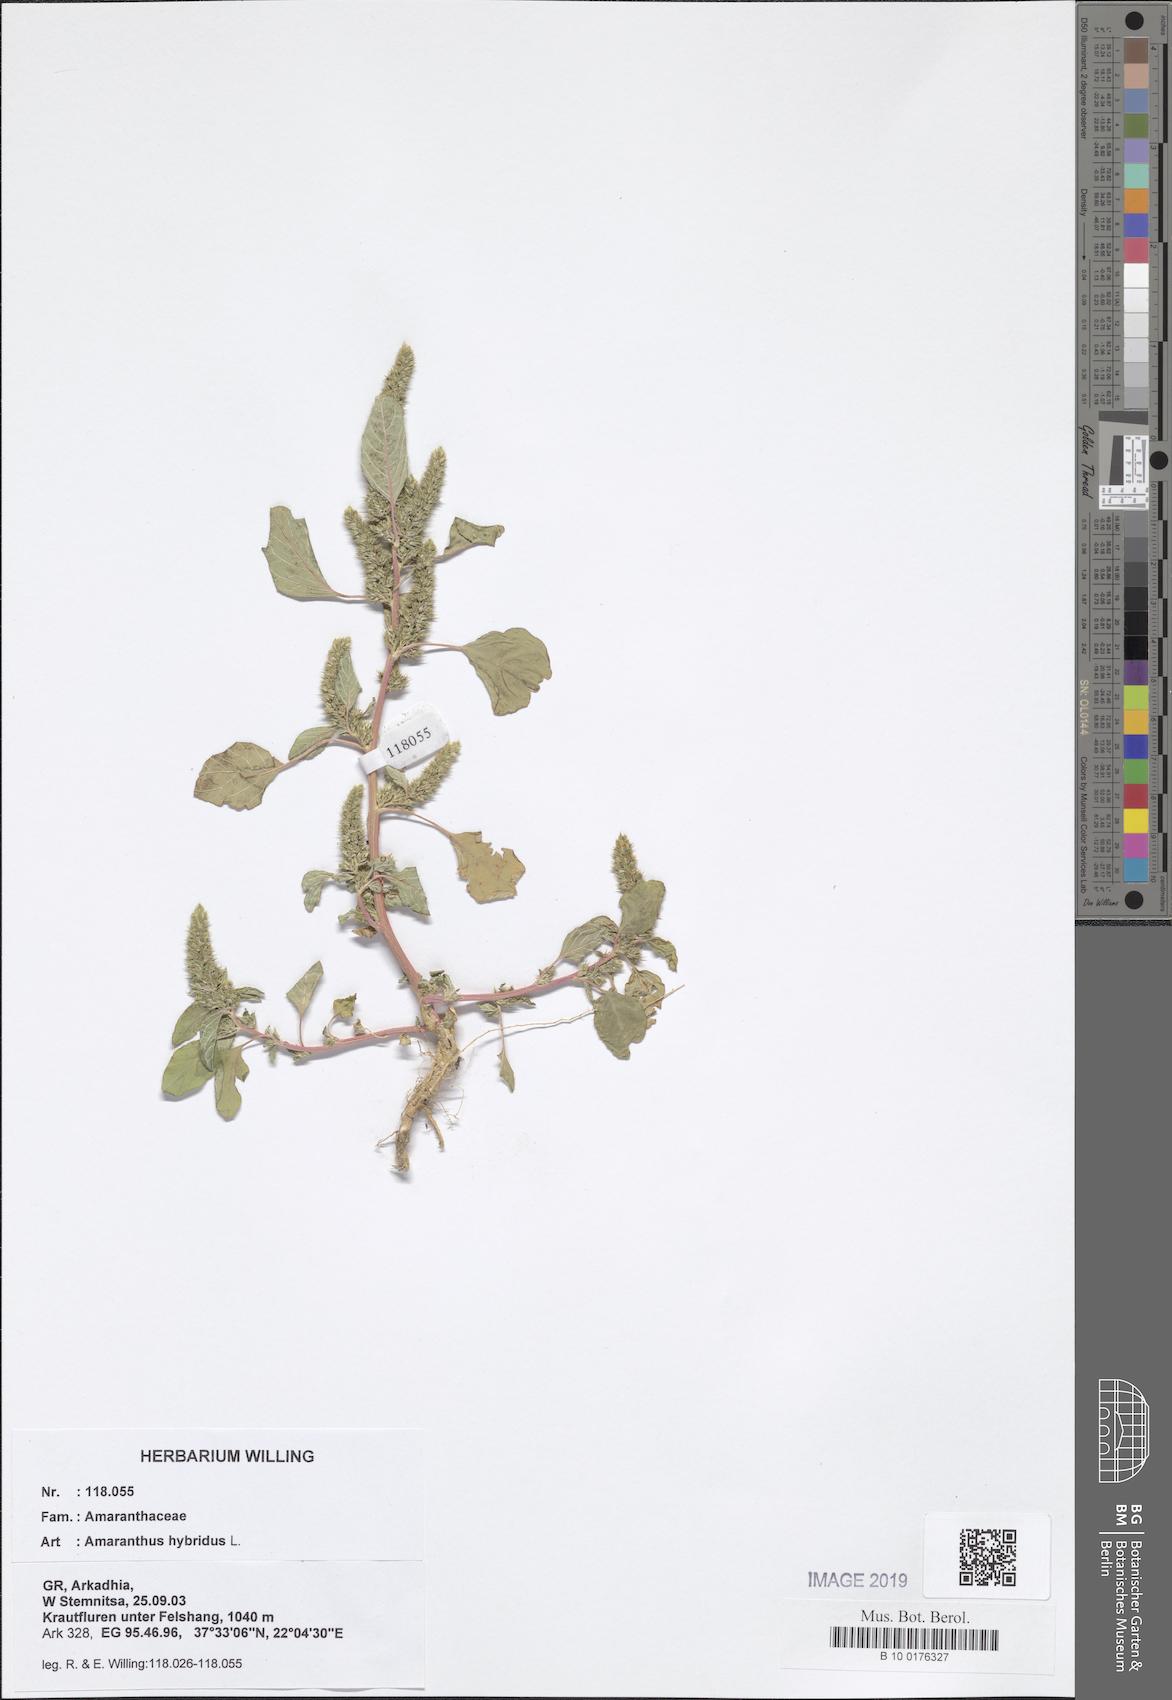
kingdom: Plantae
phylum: Tracheophyta
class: Magnoliopsida
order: Caryophyllales
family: Amaranthaceae
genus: Amaranthus
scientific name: Amaranthus hybridus
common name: Green amaranth
